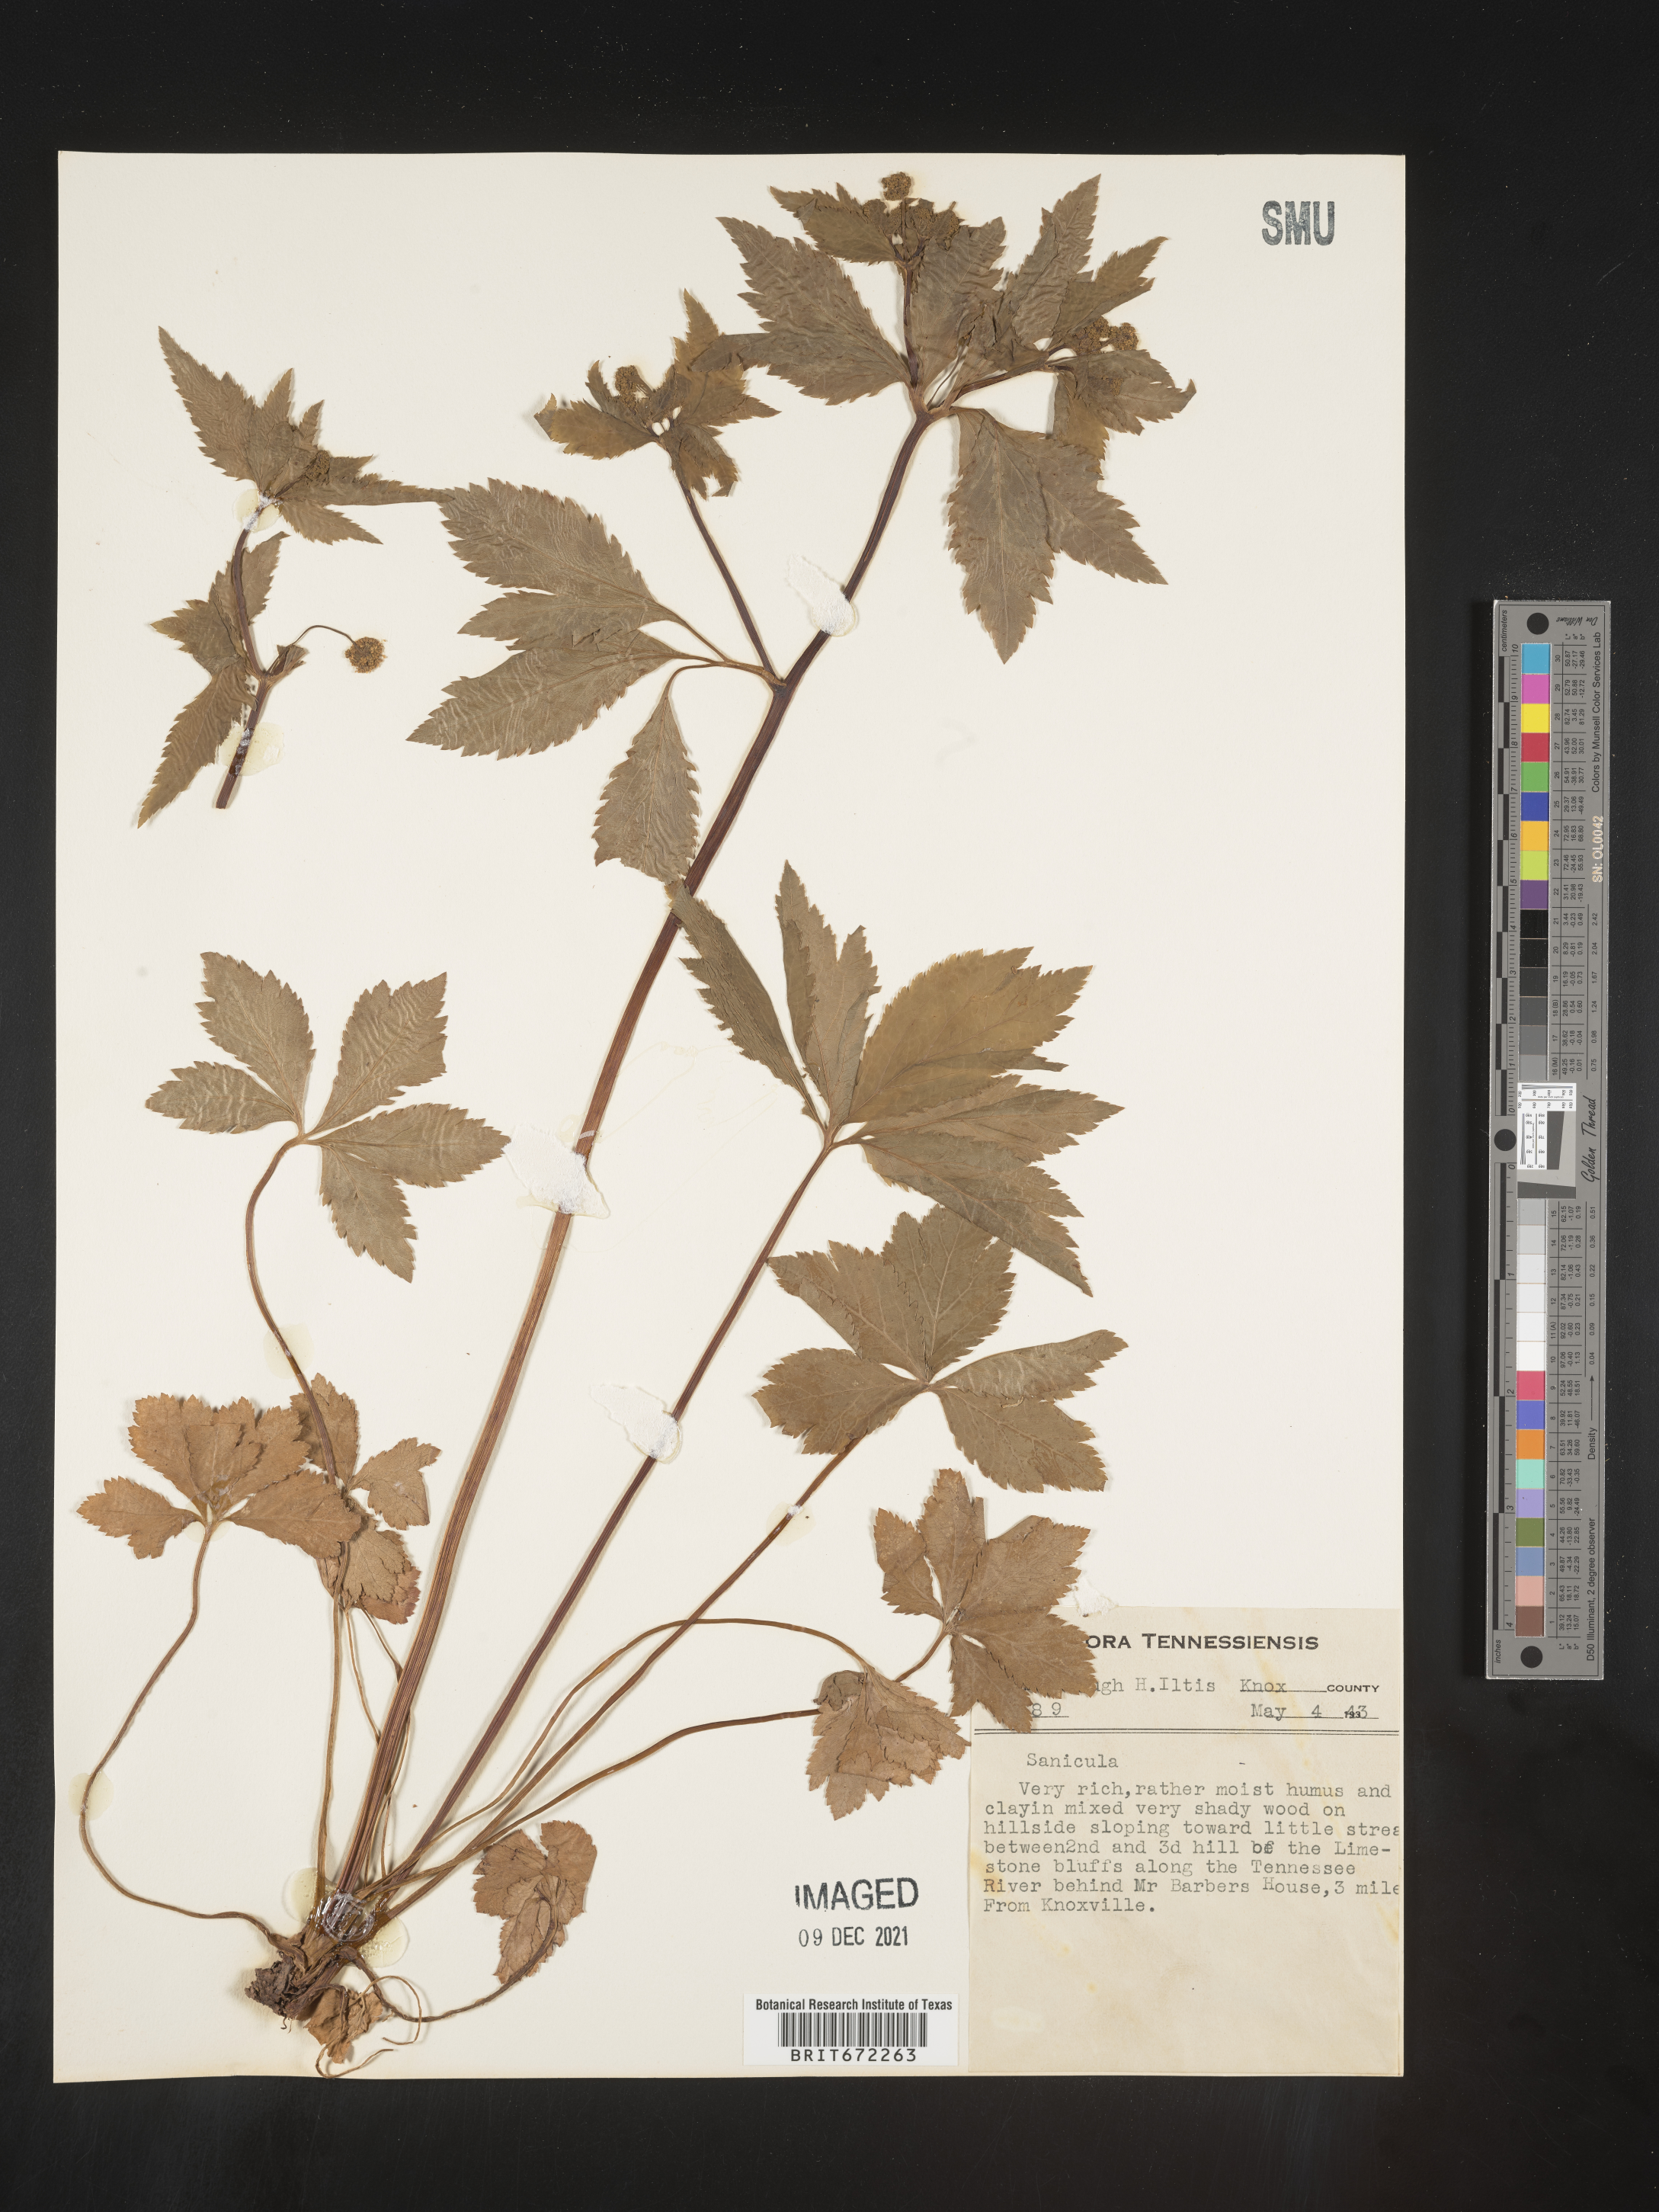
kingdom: Plantae
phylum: Tracheophyta
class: Magnoliopsida
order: Apiales
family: Apiaceae
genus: Sanicula
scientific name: Sanicula
